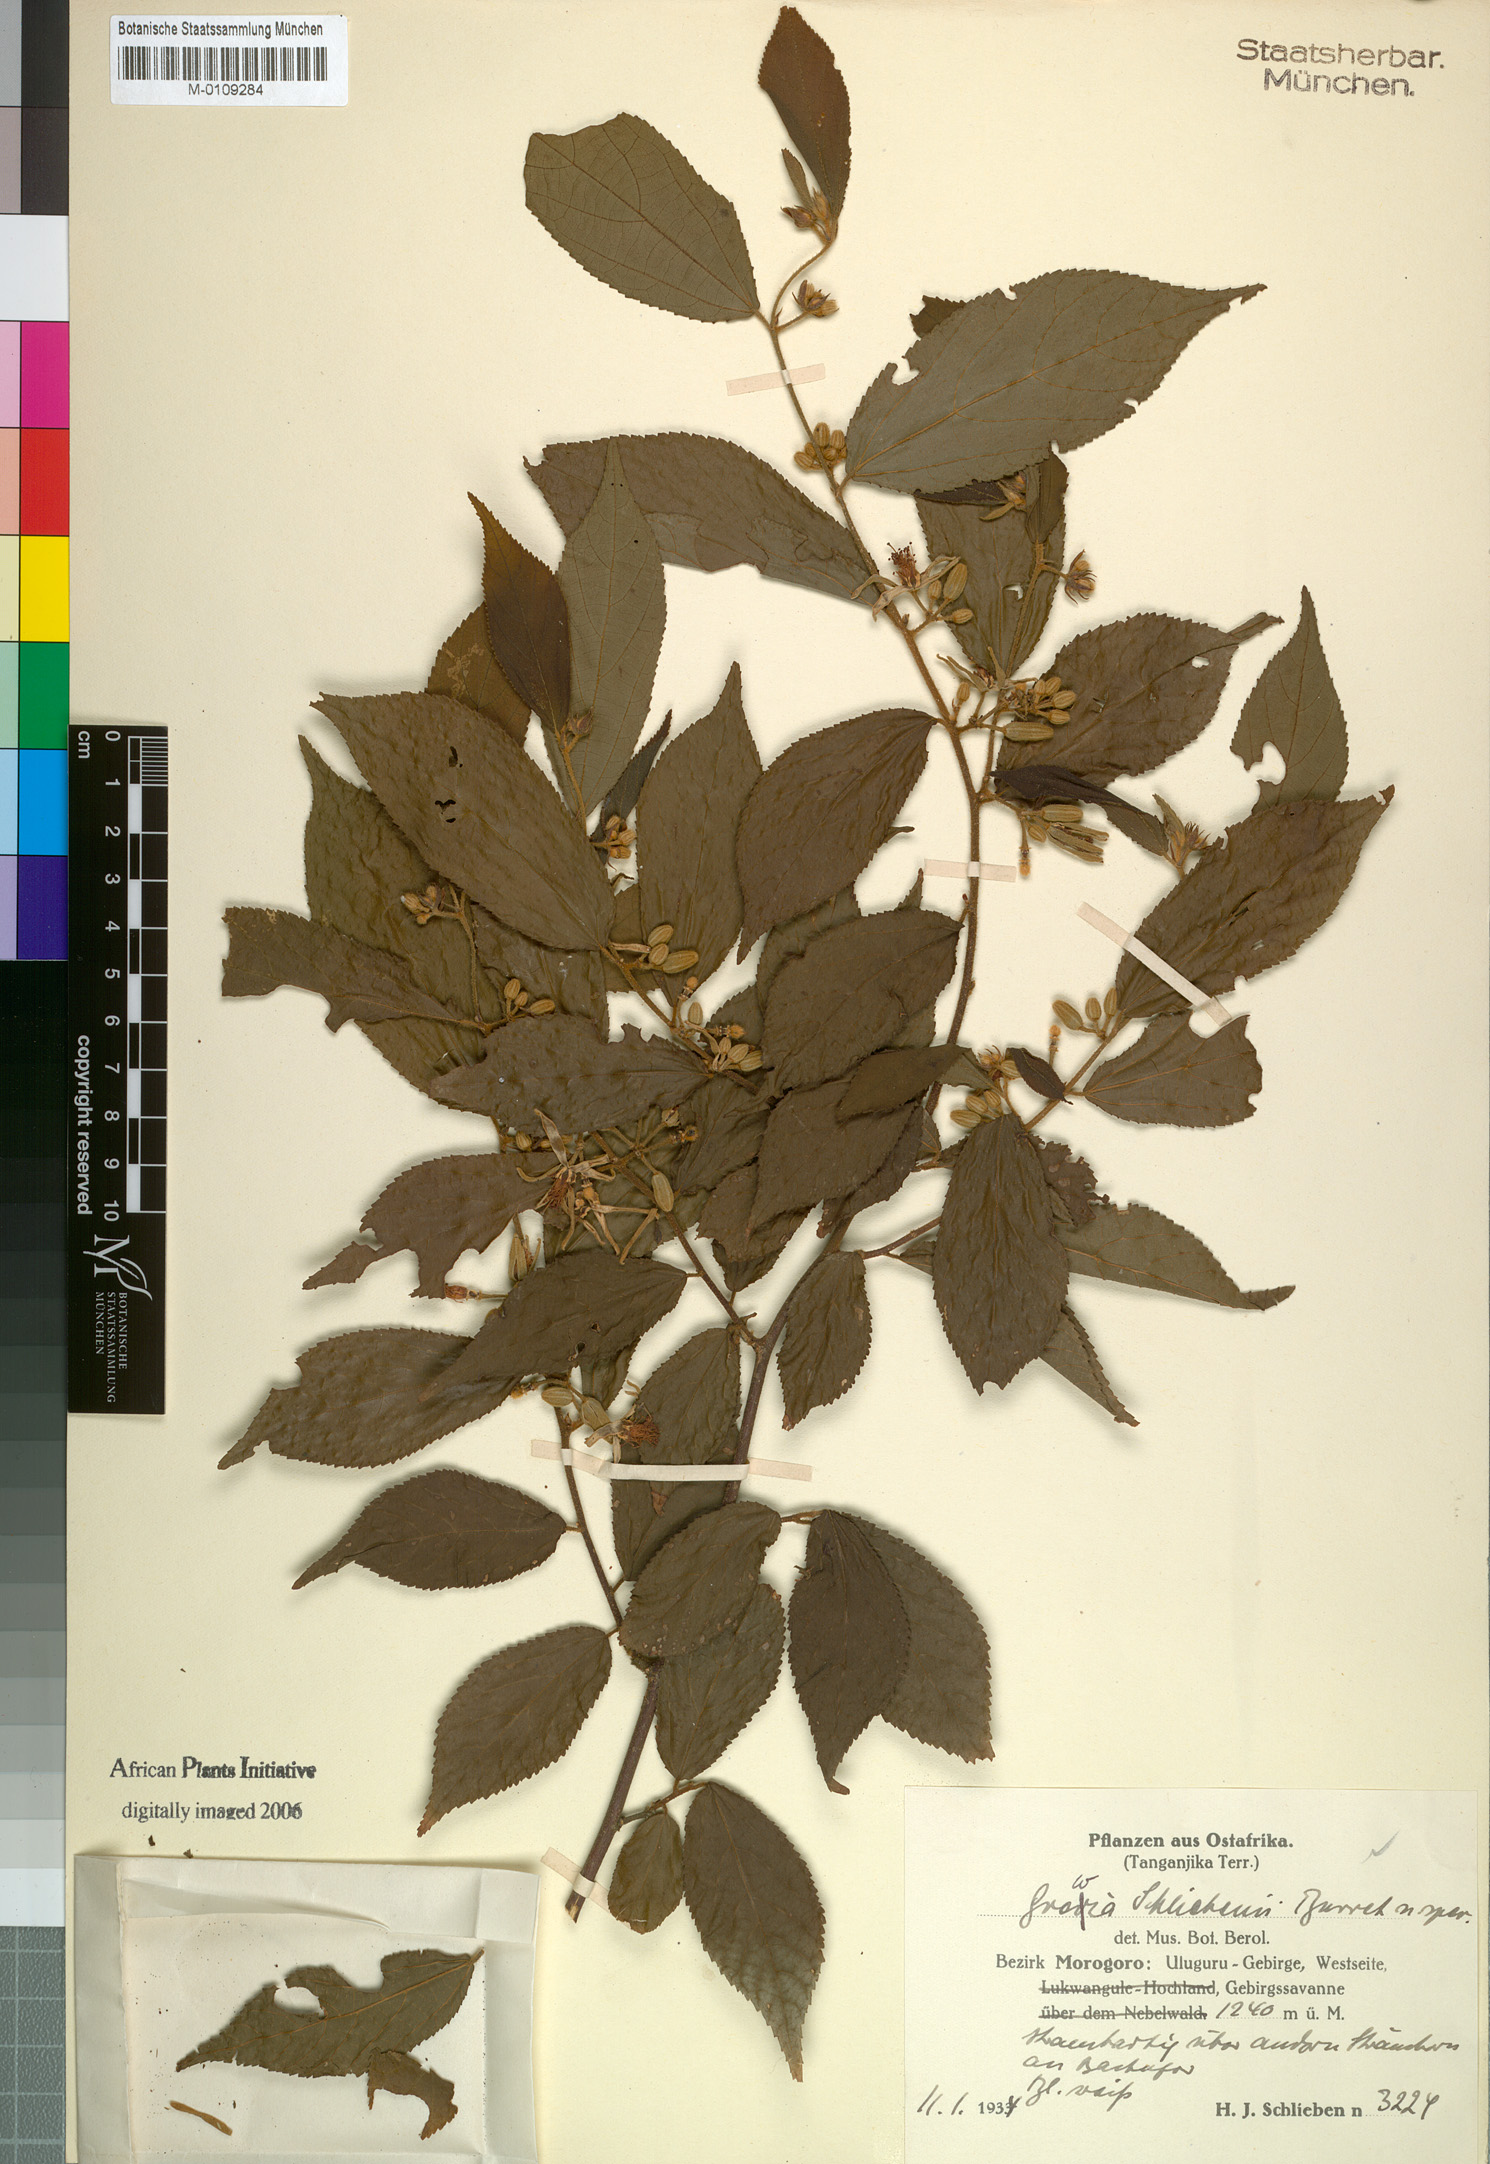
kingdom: Plantae
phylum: Tracheophyta
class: Magnoliopsida
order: Malvales
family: Malvaceae
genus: Grewia
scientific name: Grewia stolzii
